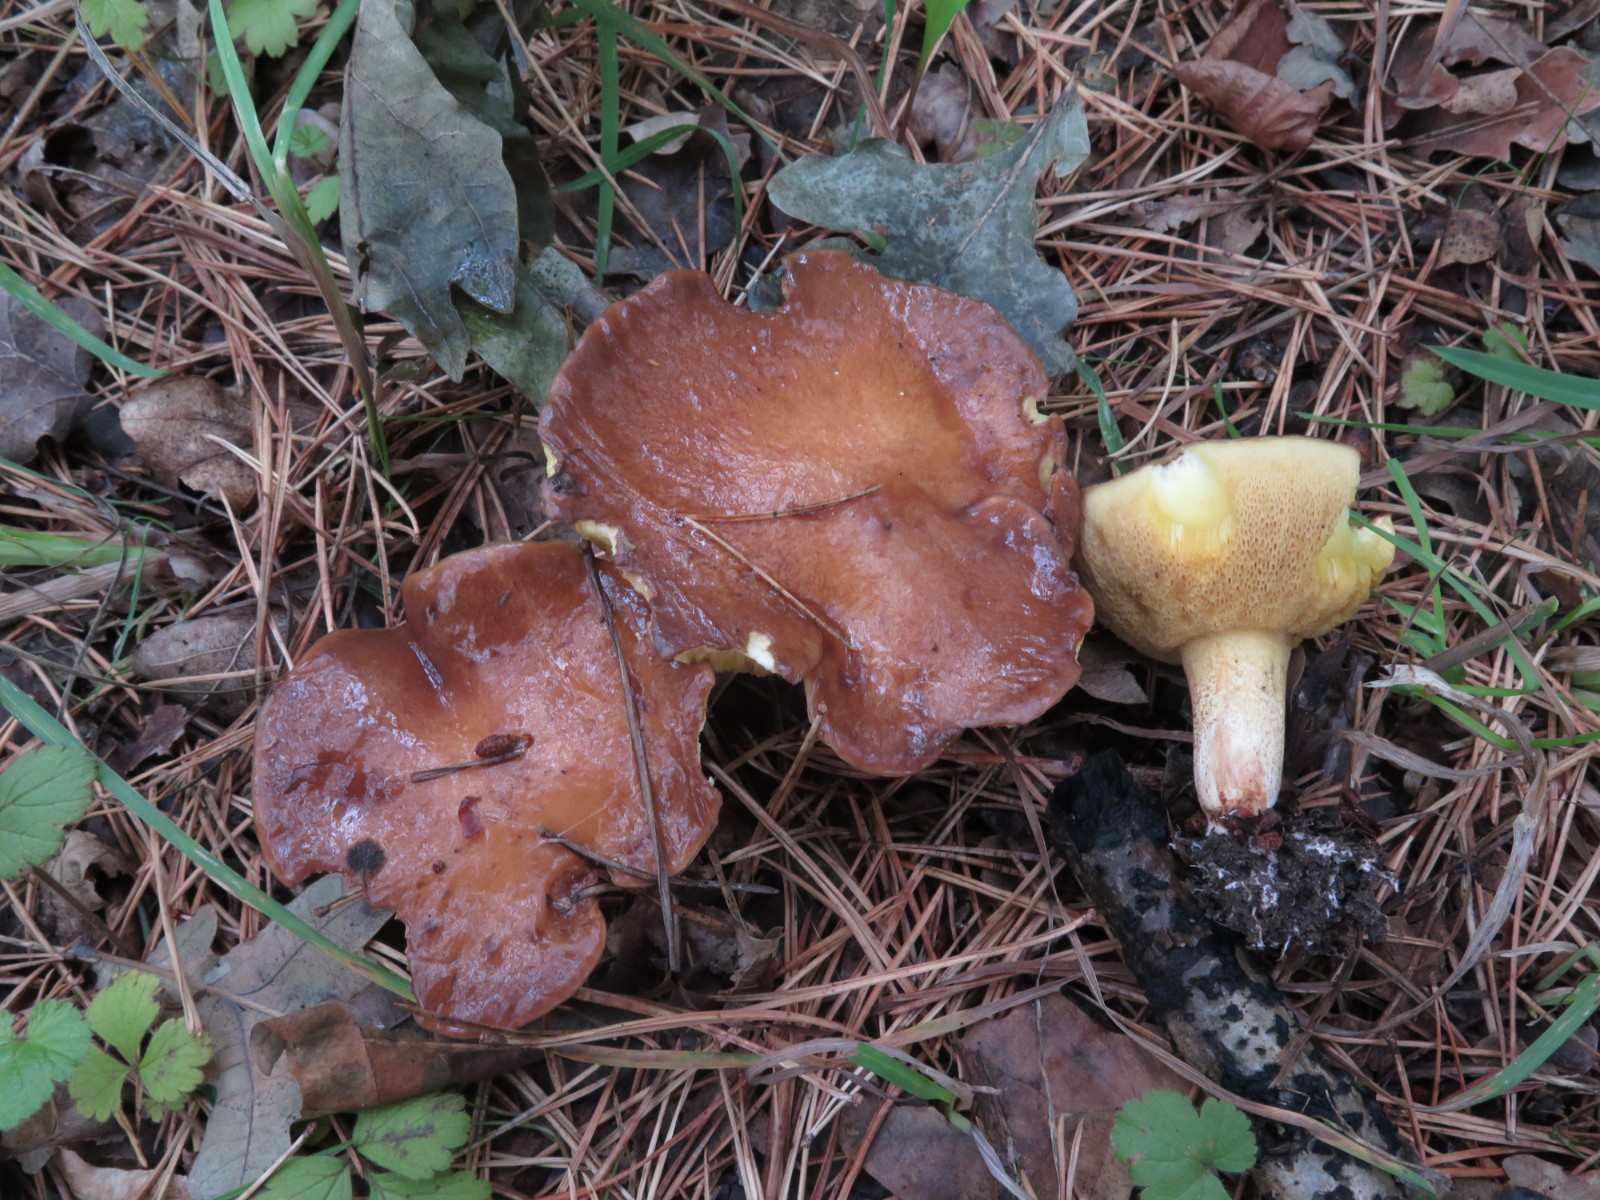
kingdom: Fungi
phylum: Basidiomycota
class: Agaricomycetes
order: Boletales
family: Suillaceae
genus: Suillus
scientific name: Suillus bovinus
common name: grovporet slimrørhat
